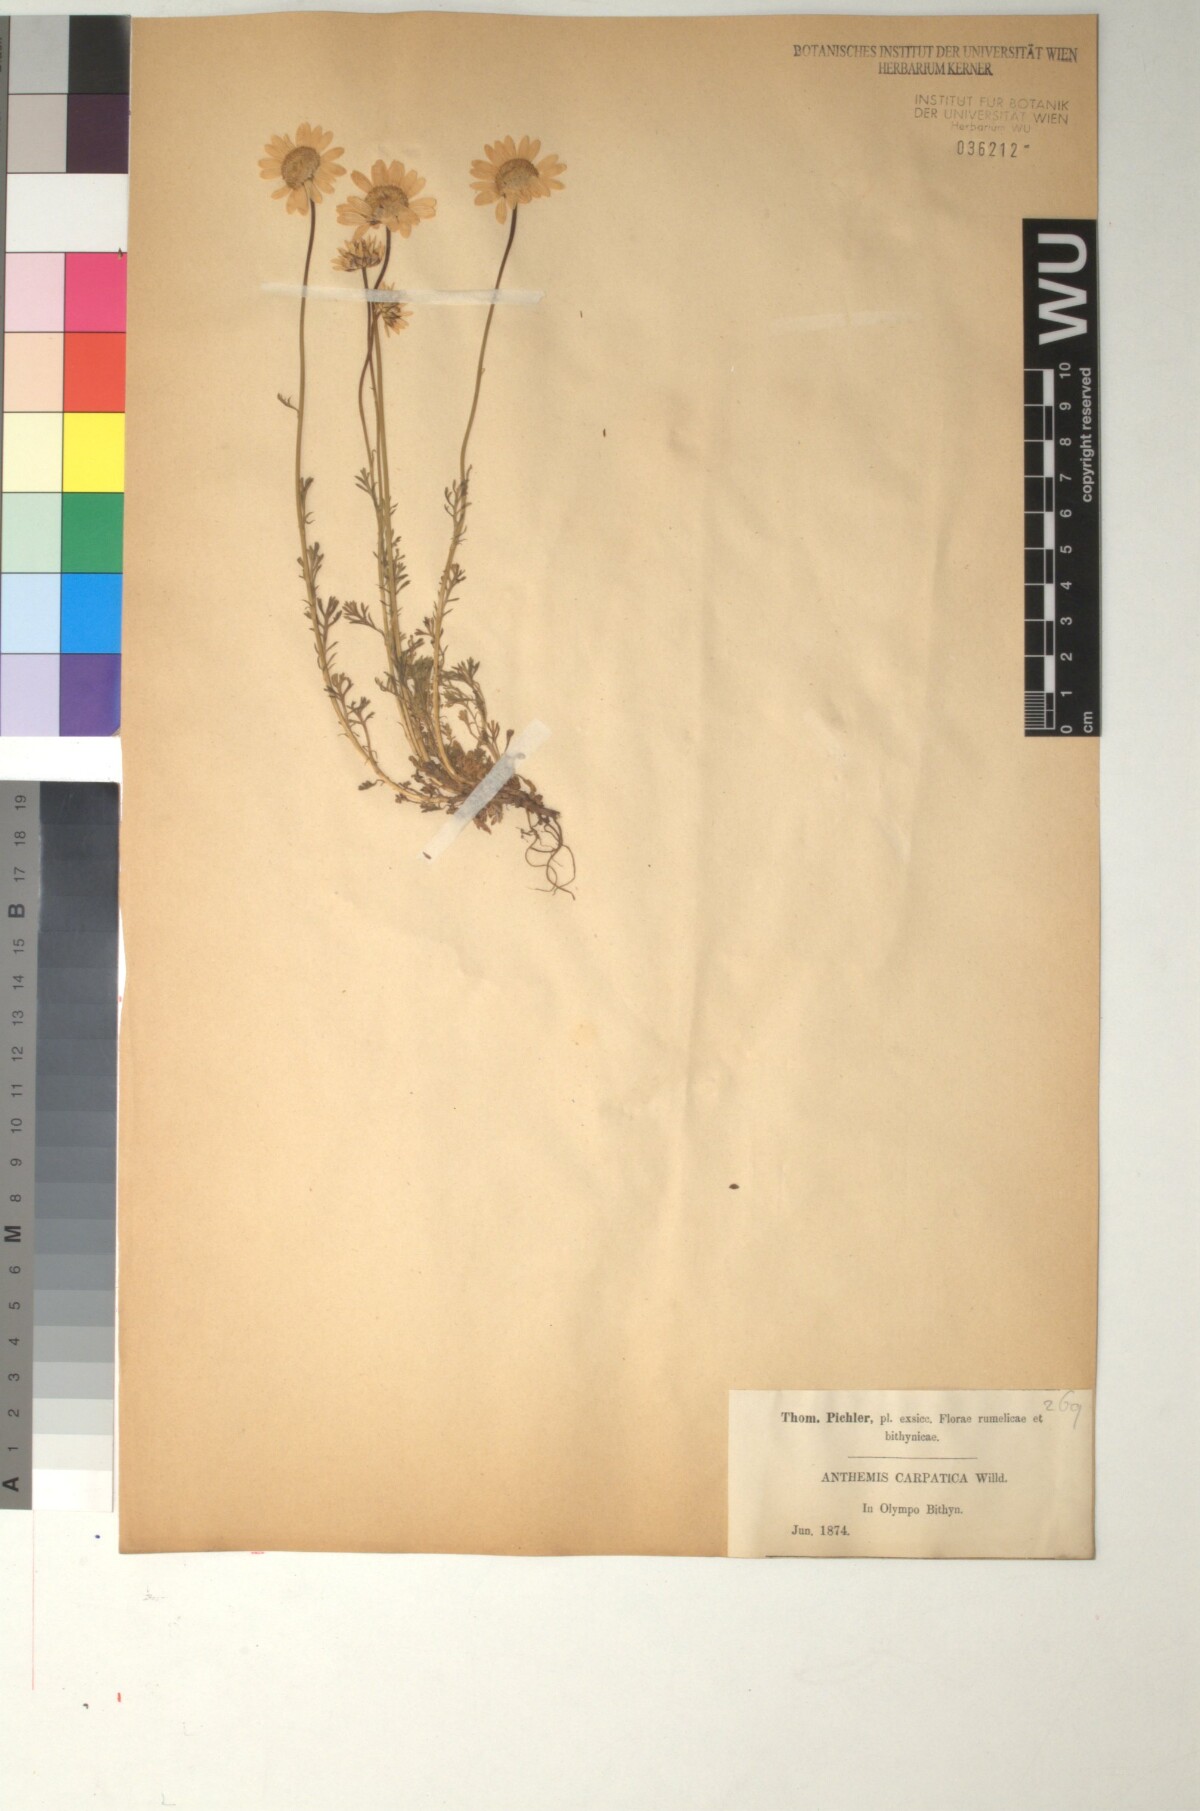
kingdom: Plantae
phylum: Tracheophyta
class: Magnoliopsida
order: Asterales
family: Asteraceae
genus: Anthemis
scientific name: Anthemis cretica
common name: Mountain dog-daisy
